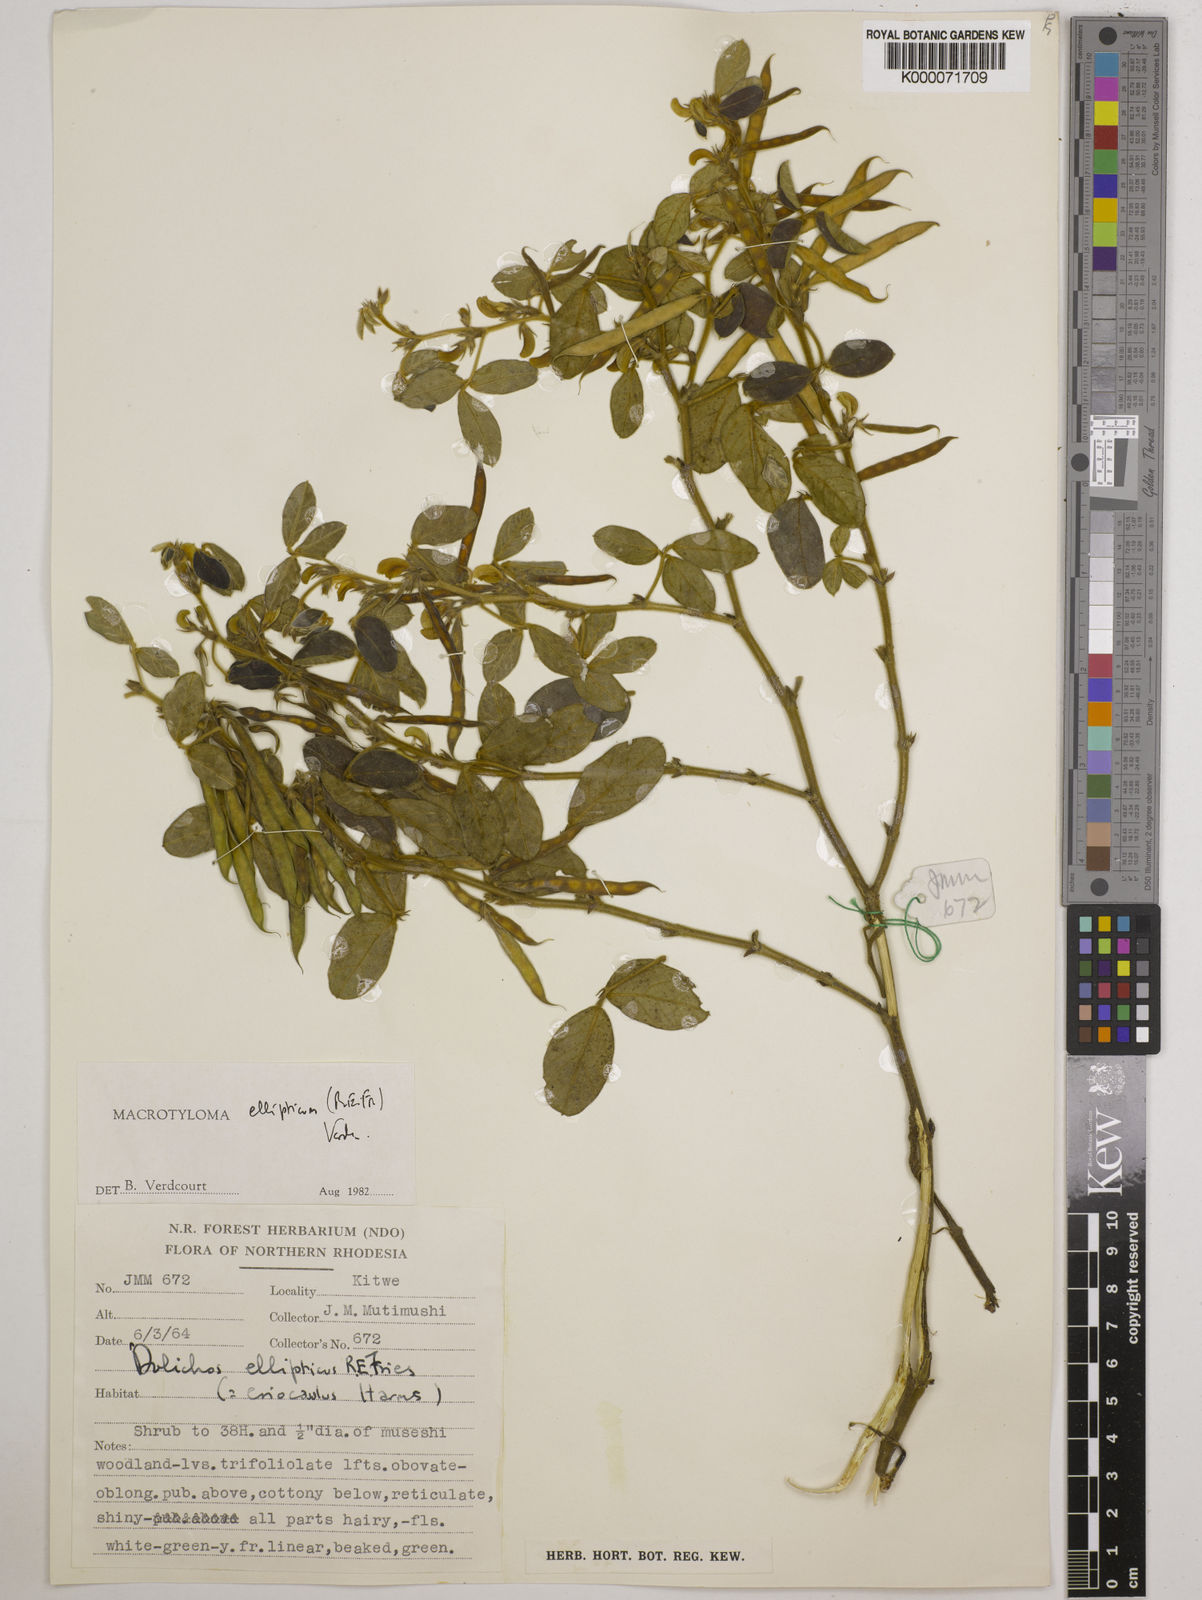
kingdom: Plantae
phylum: Tracheophyta
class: Magnoliopsida
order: Fabales
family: Fabaceae
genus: Macrotyloma
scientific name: Macrotyloma ellipticum
